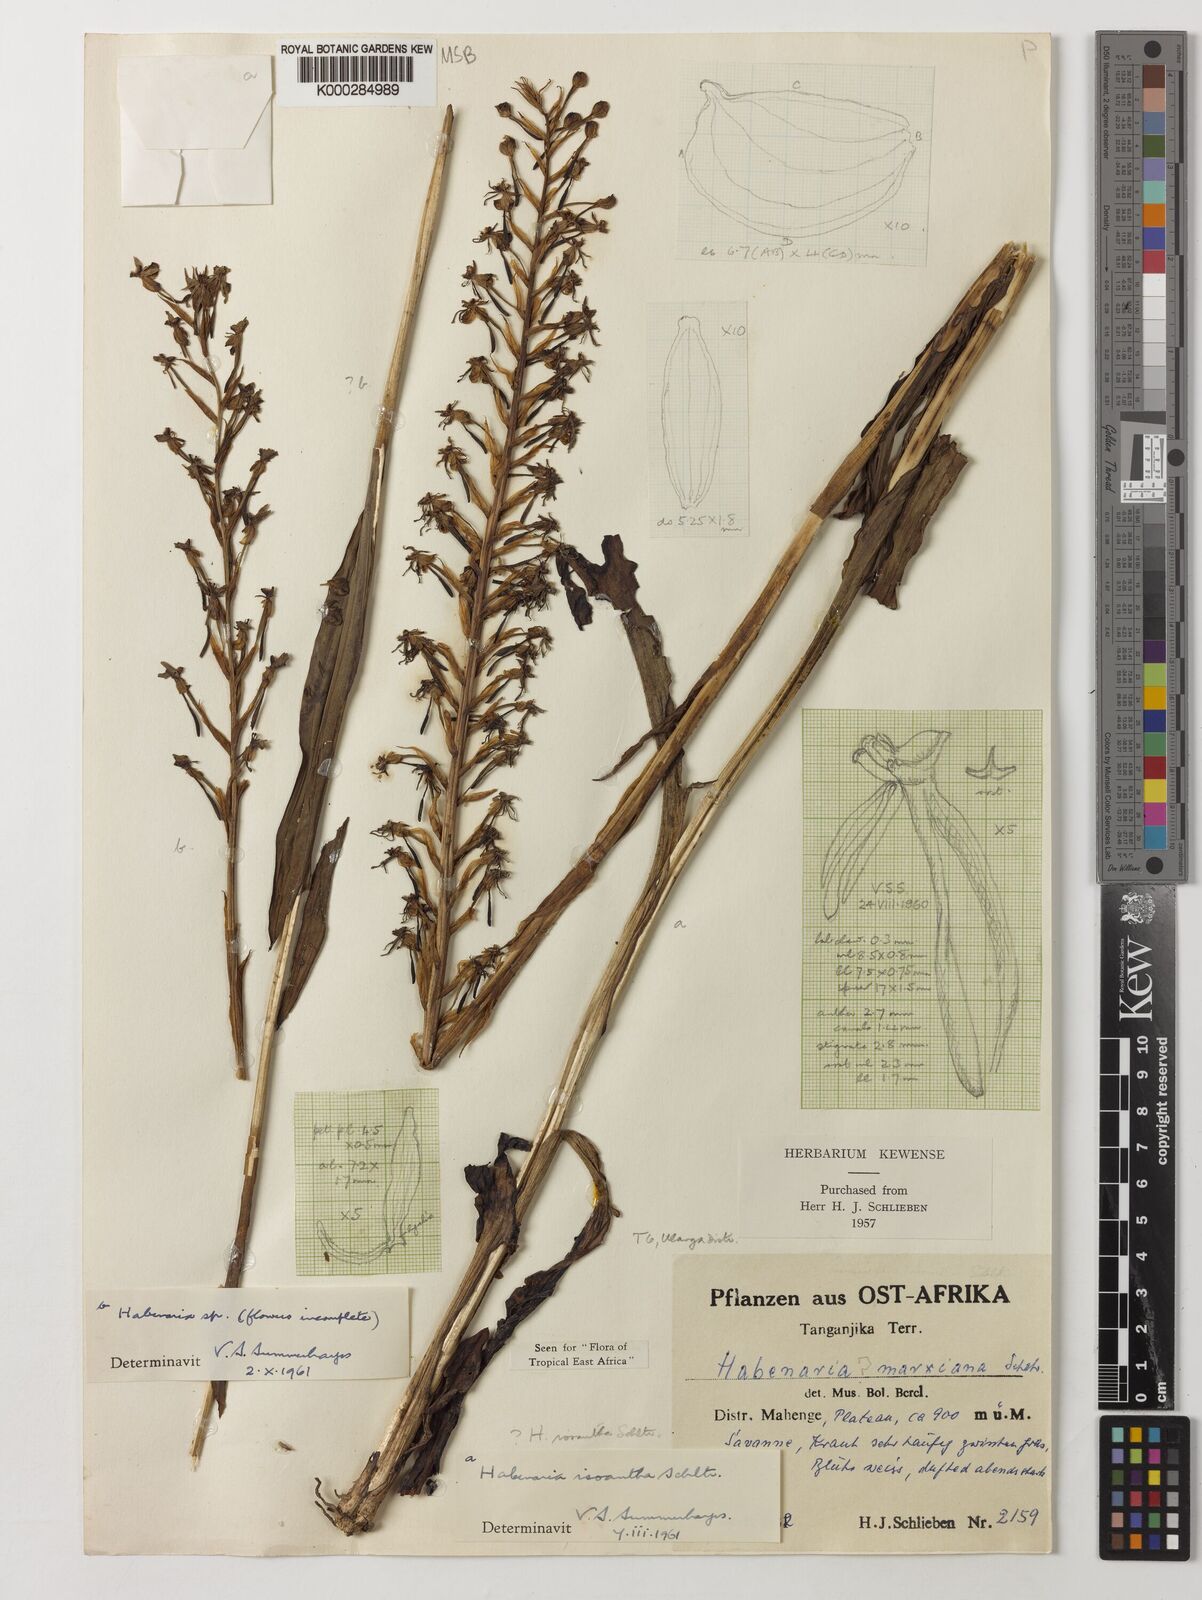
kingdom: Plantae
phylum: Tracheophyta
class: Liliopsida
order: Asparagales
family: Orchidaceae
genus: Habenaria
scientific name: Habenaria isoantha
